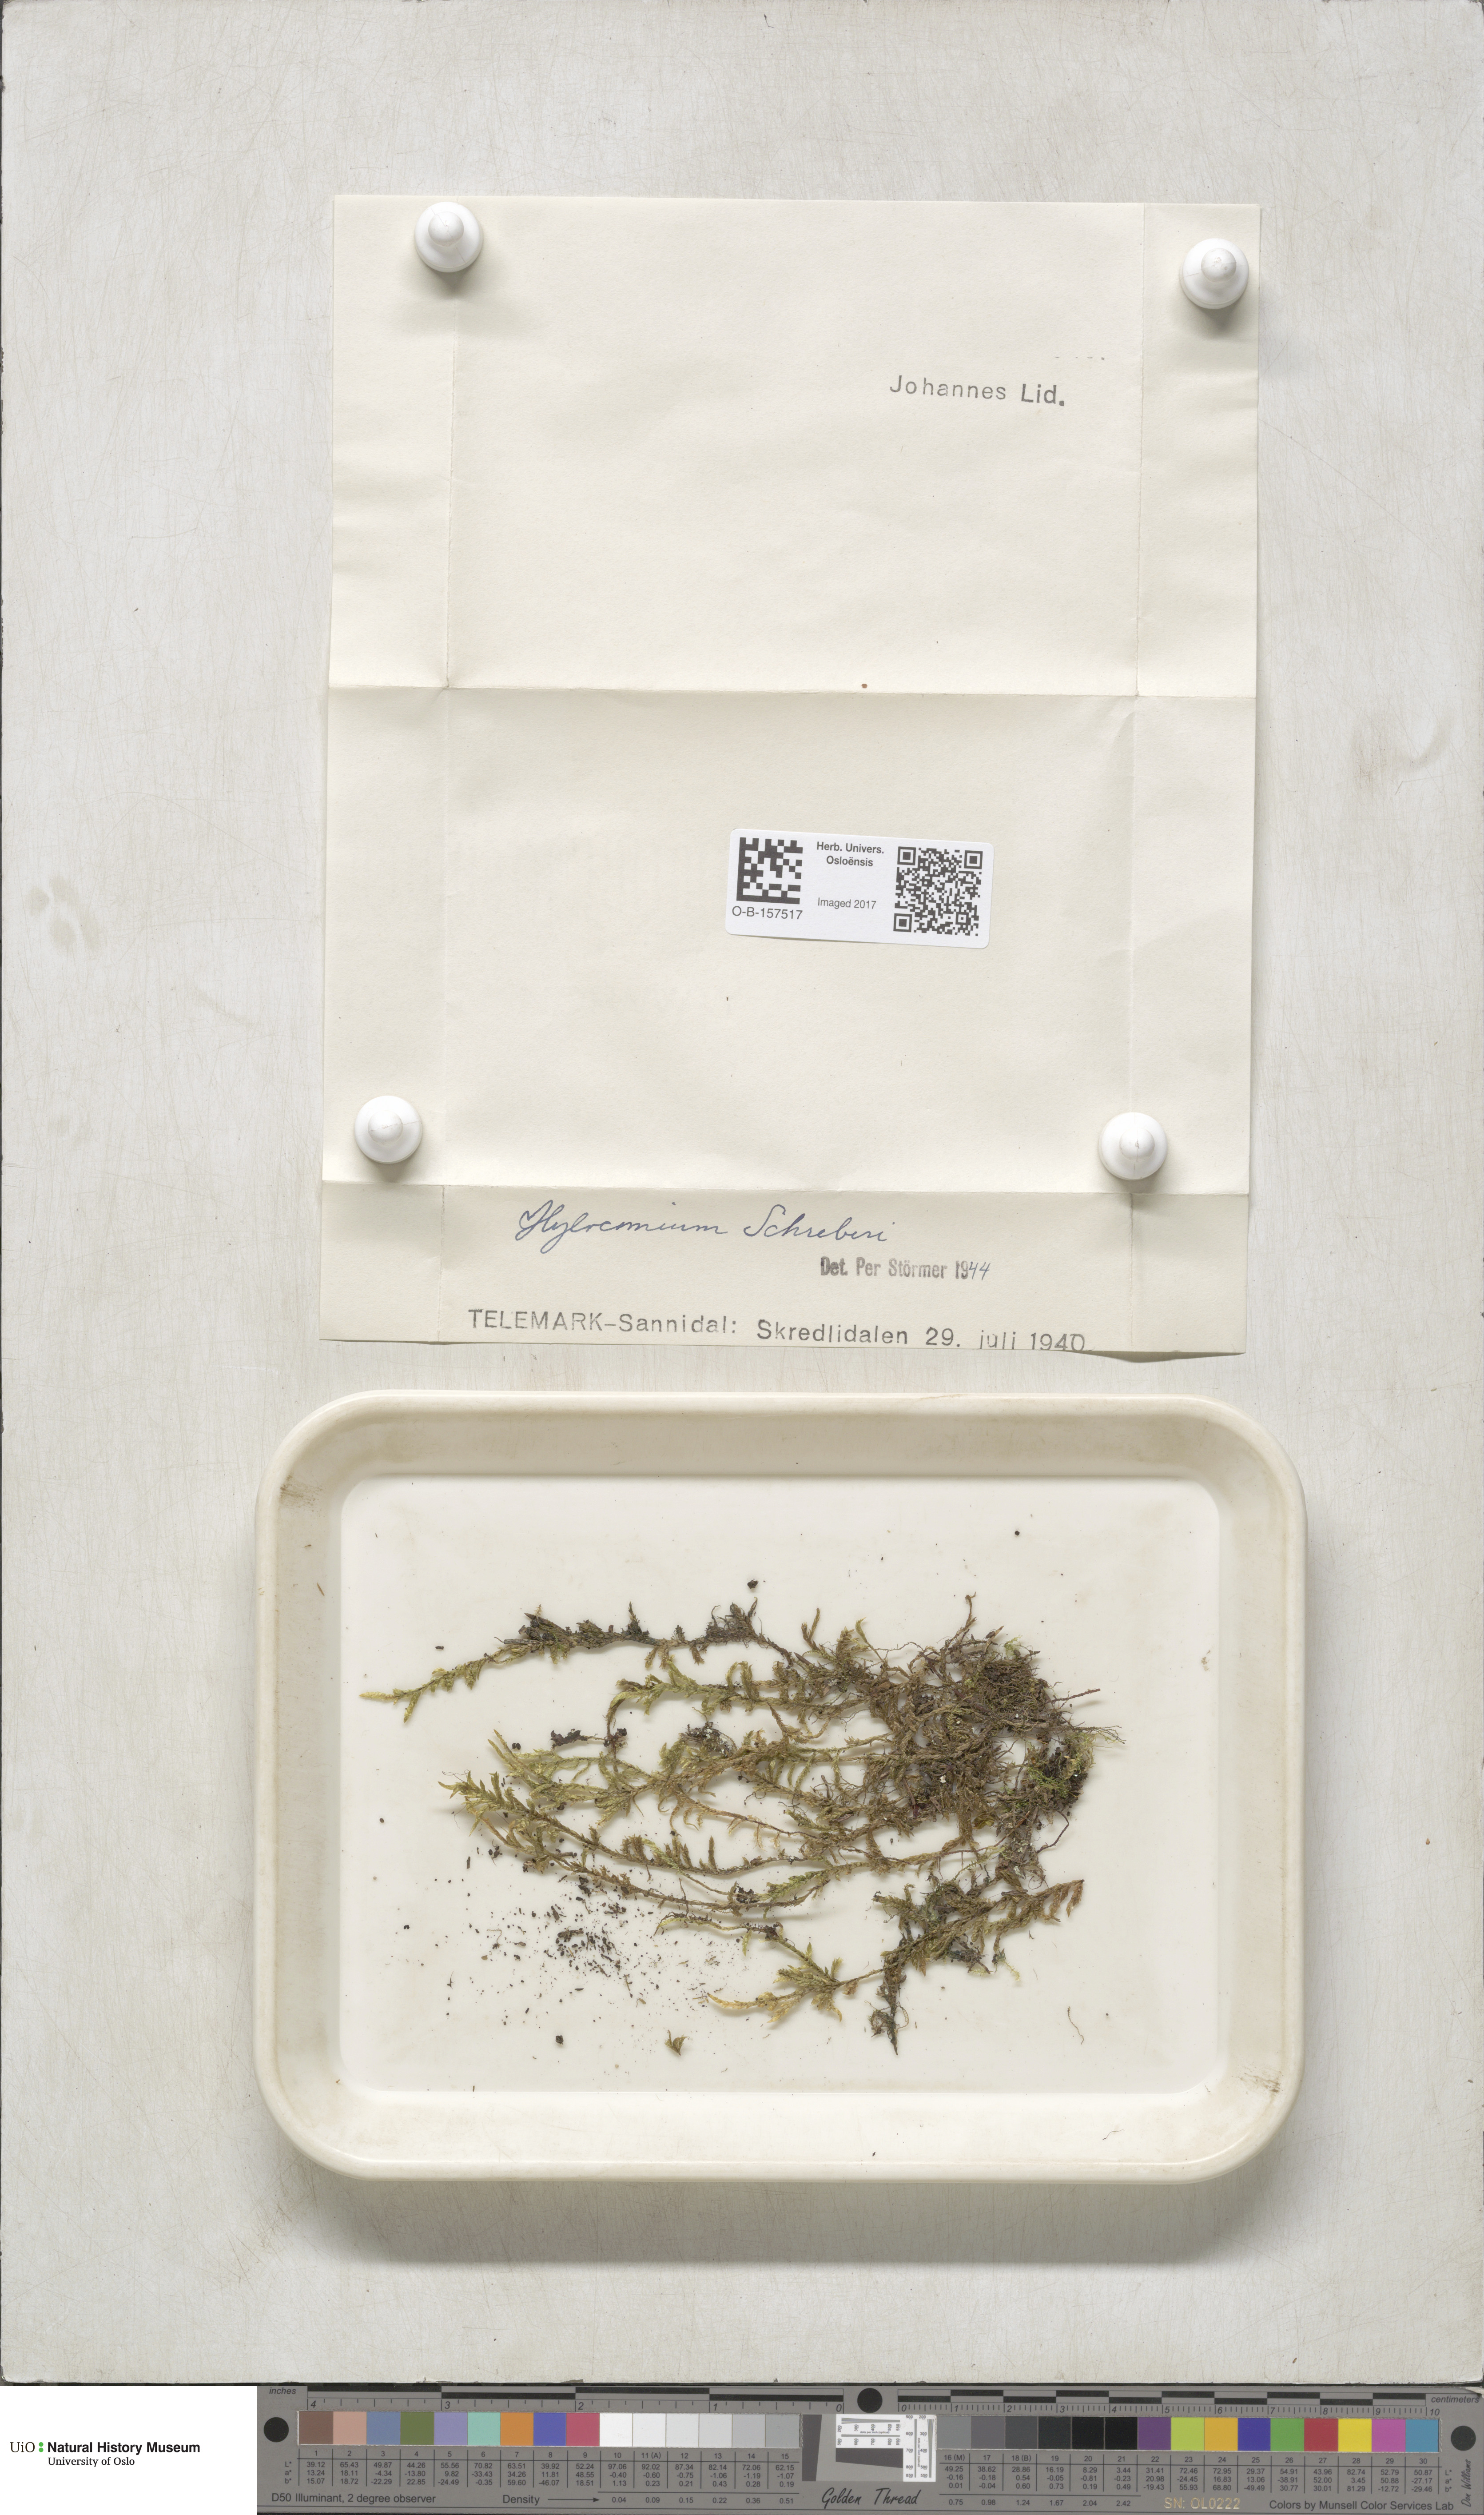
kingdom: Plantae
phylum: Bryophyta
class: Bryopsida
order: Hypnales
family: Hylocomiaceae
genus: Pleurozium
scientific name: Pleurozium schreberi
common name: Red-stemmed feather moss
